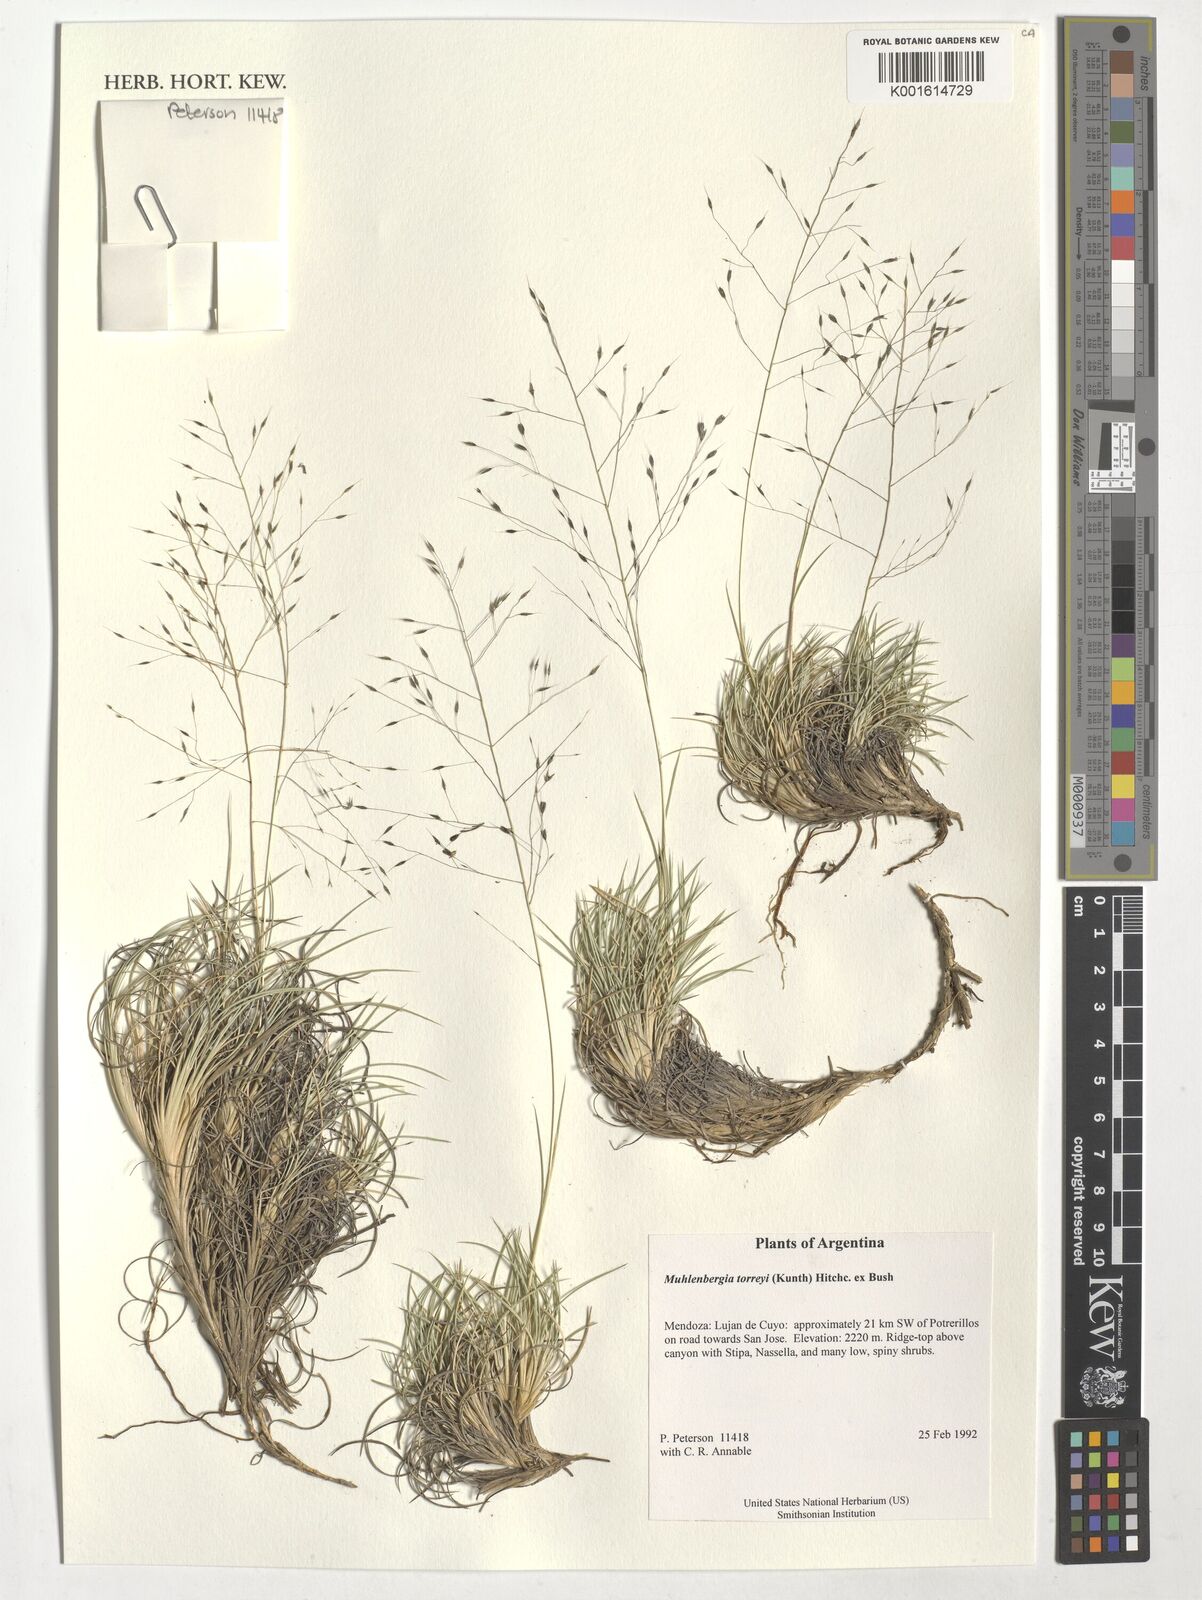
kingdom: Plantae
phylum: Tracheophyta
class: Liliopsida
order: Poales
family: Poaceae
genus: Muhlenbergia
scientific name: Muhlenbergia torreyi
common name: Ring grass
